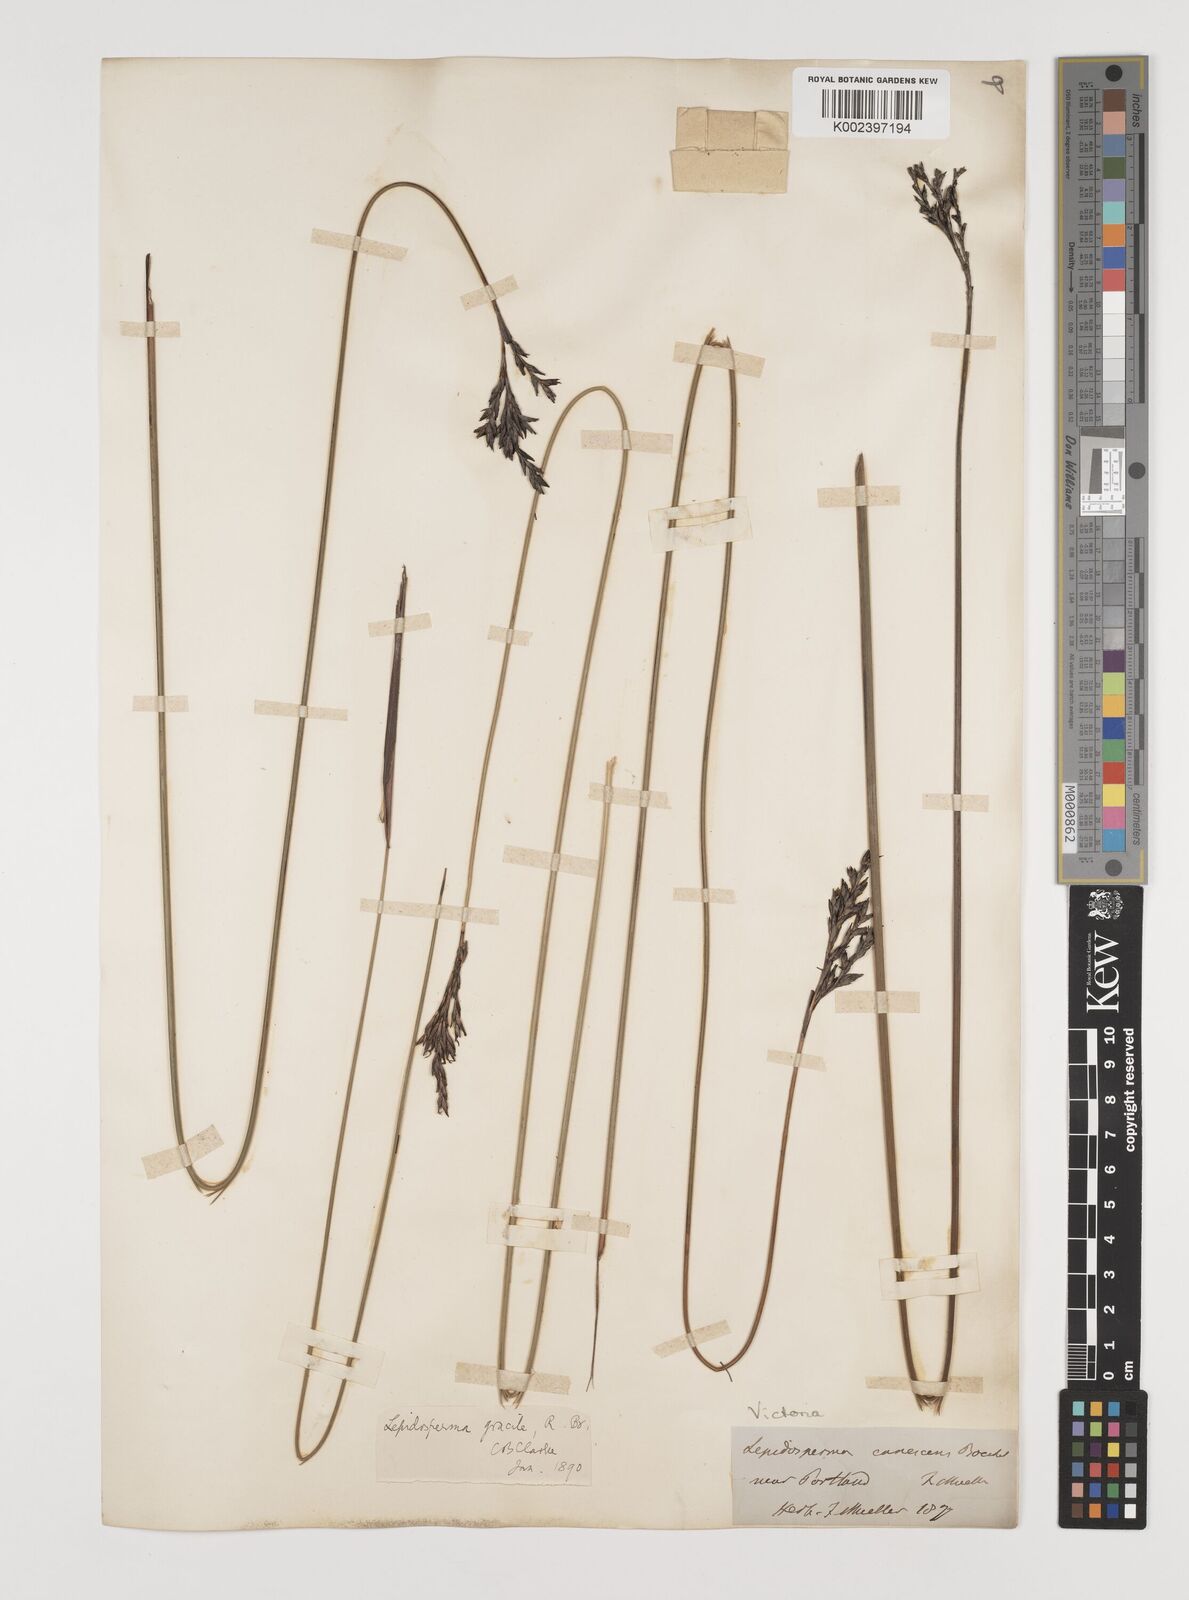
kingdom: Plantae
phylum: Tracheophyta
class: Liliopsida
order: Poales
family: Cyperaceae
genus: Lepidosperma
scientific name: Lepidosperma canescens
